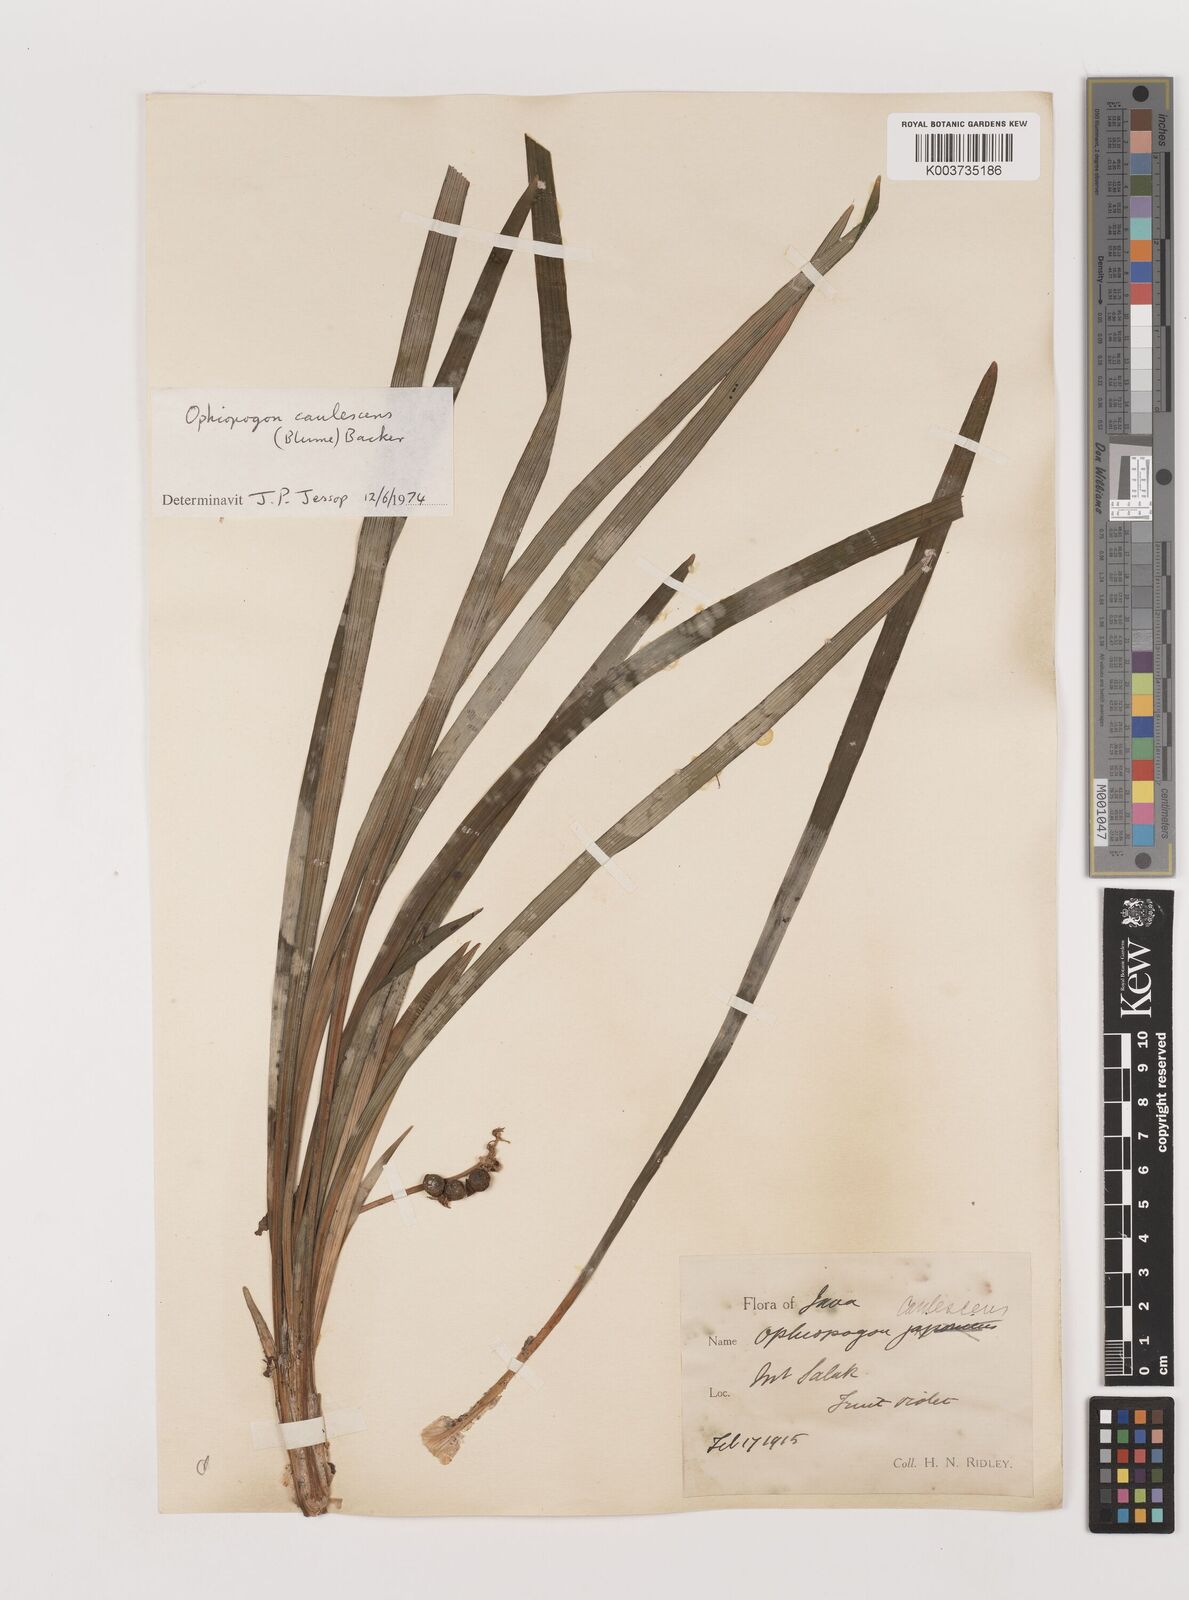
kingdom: Plantae
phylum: Tracheophyta
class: Liliopsida
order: Asparagales
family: Asparagaceae
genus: Ophiopogon
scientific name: Ophiopogon caulescens
